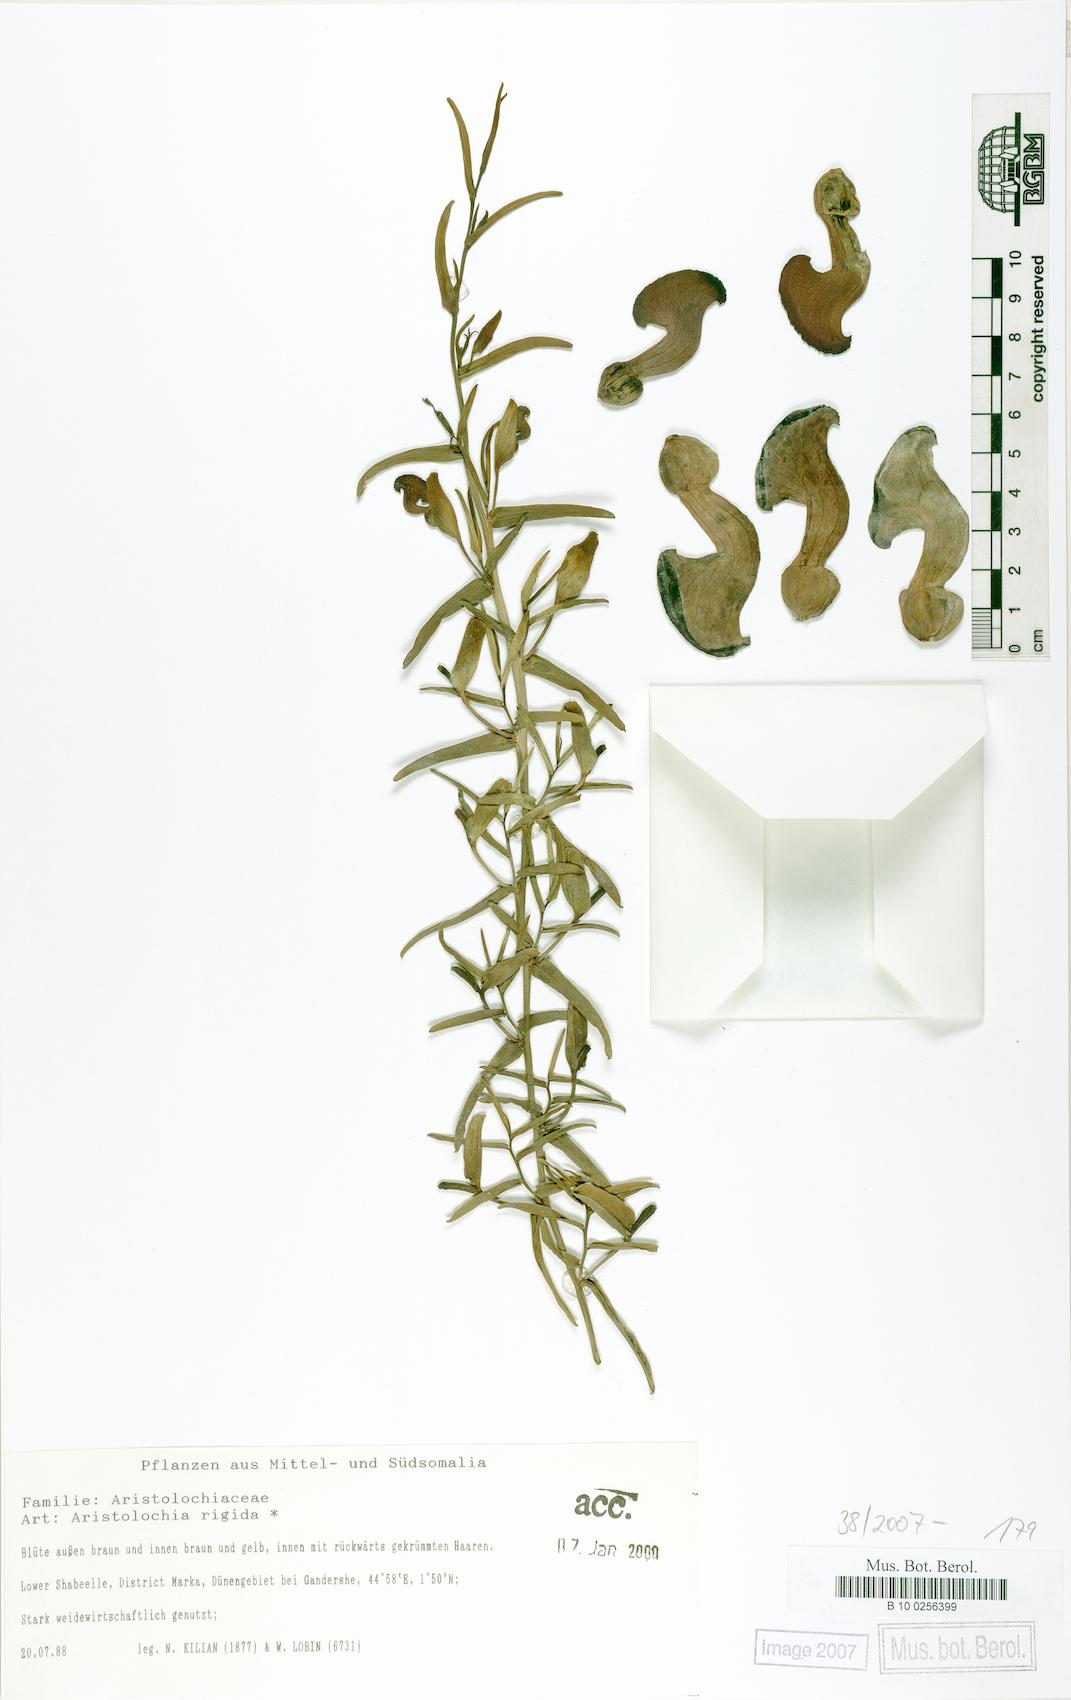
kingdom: Plantae
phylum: Tracheophyta
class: Magnoliopsida
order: Piperales
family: Aristolochiaceae
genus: Aristolochia
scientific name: Aristolochia rigida
